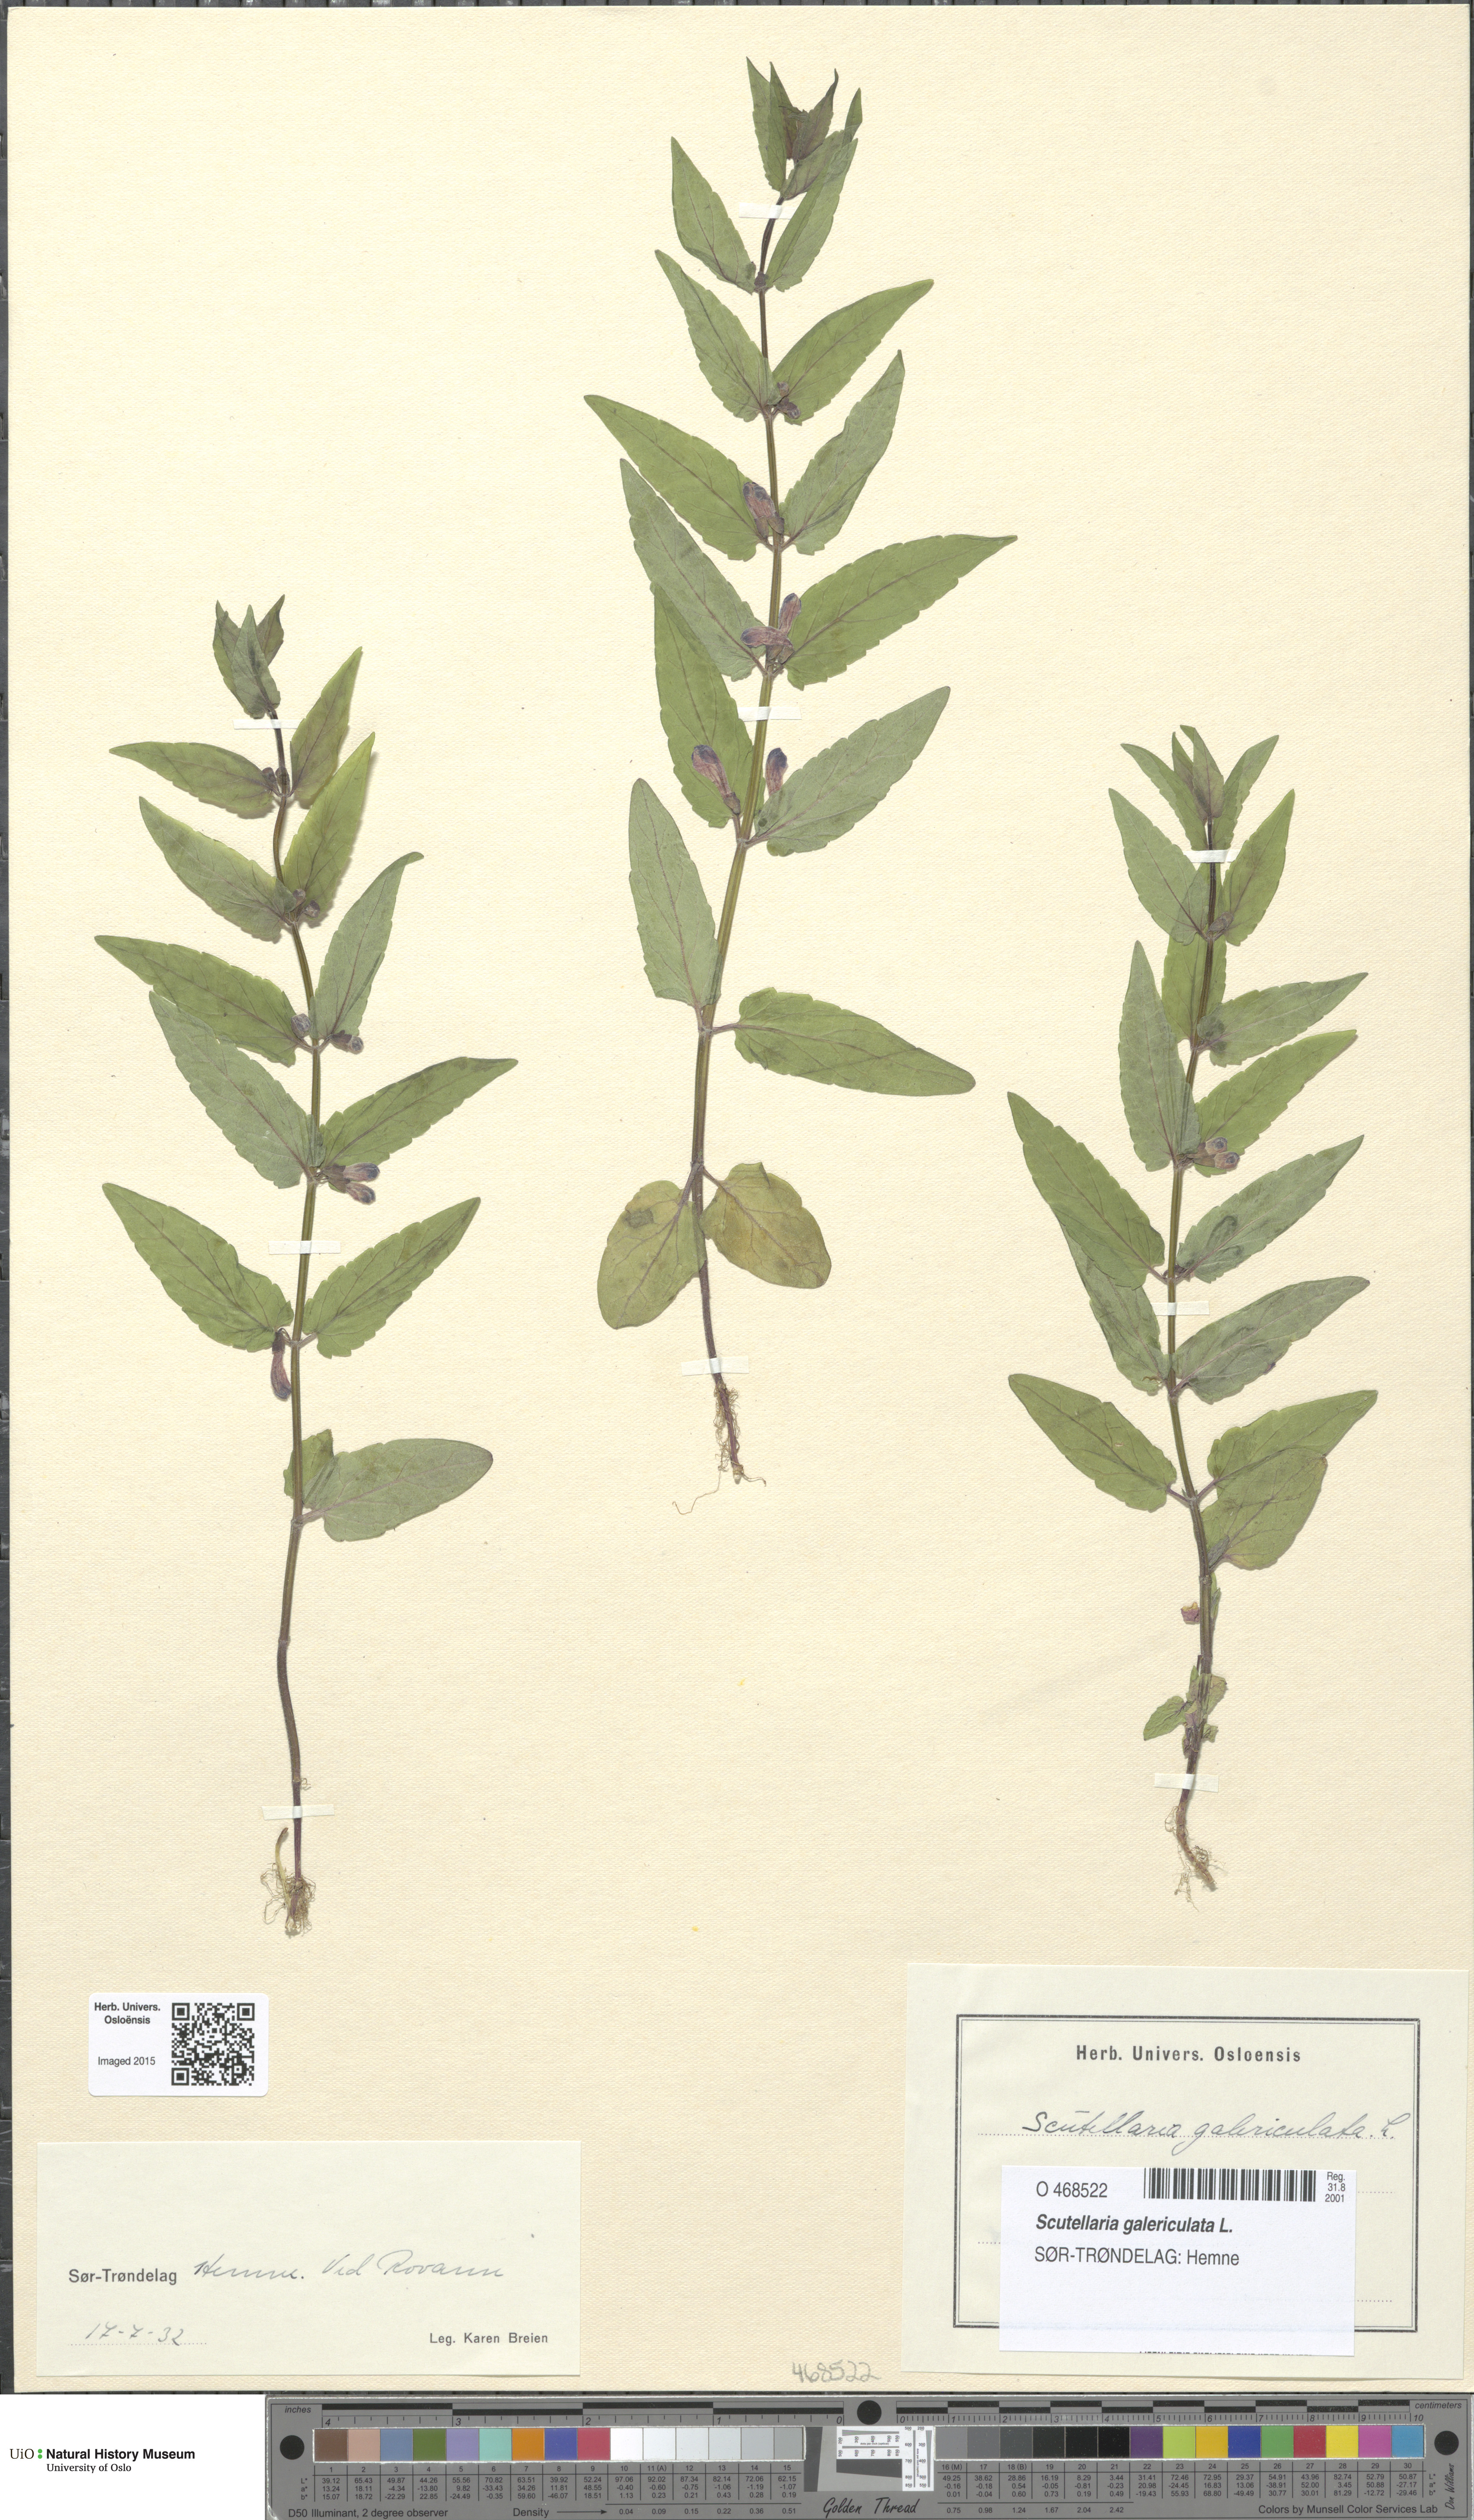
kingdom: Plantae
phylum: Tracheophyta
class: Magnoliopsida
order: Lamiales
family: Lamiaceae
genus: Scutellaria
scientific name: Scutellaria galericulata
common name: Skullcap
